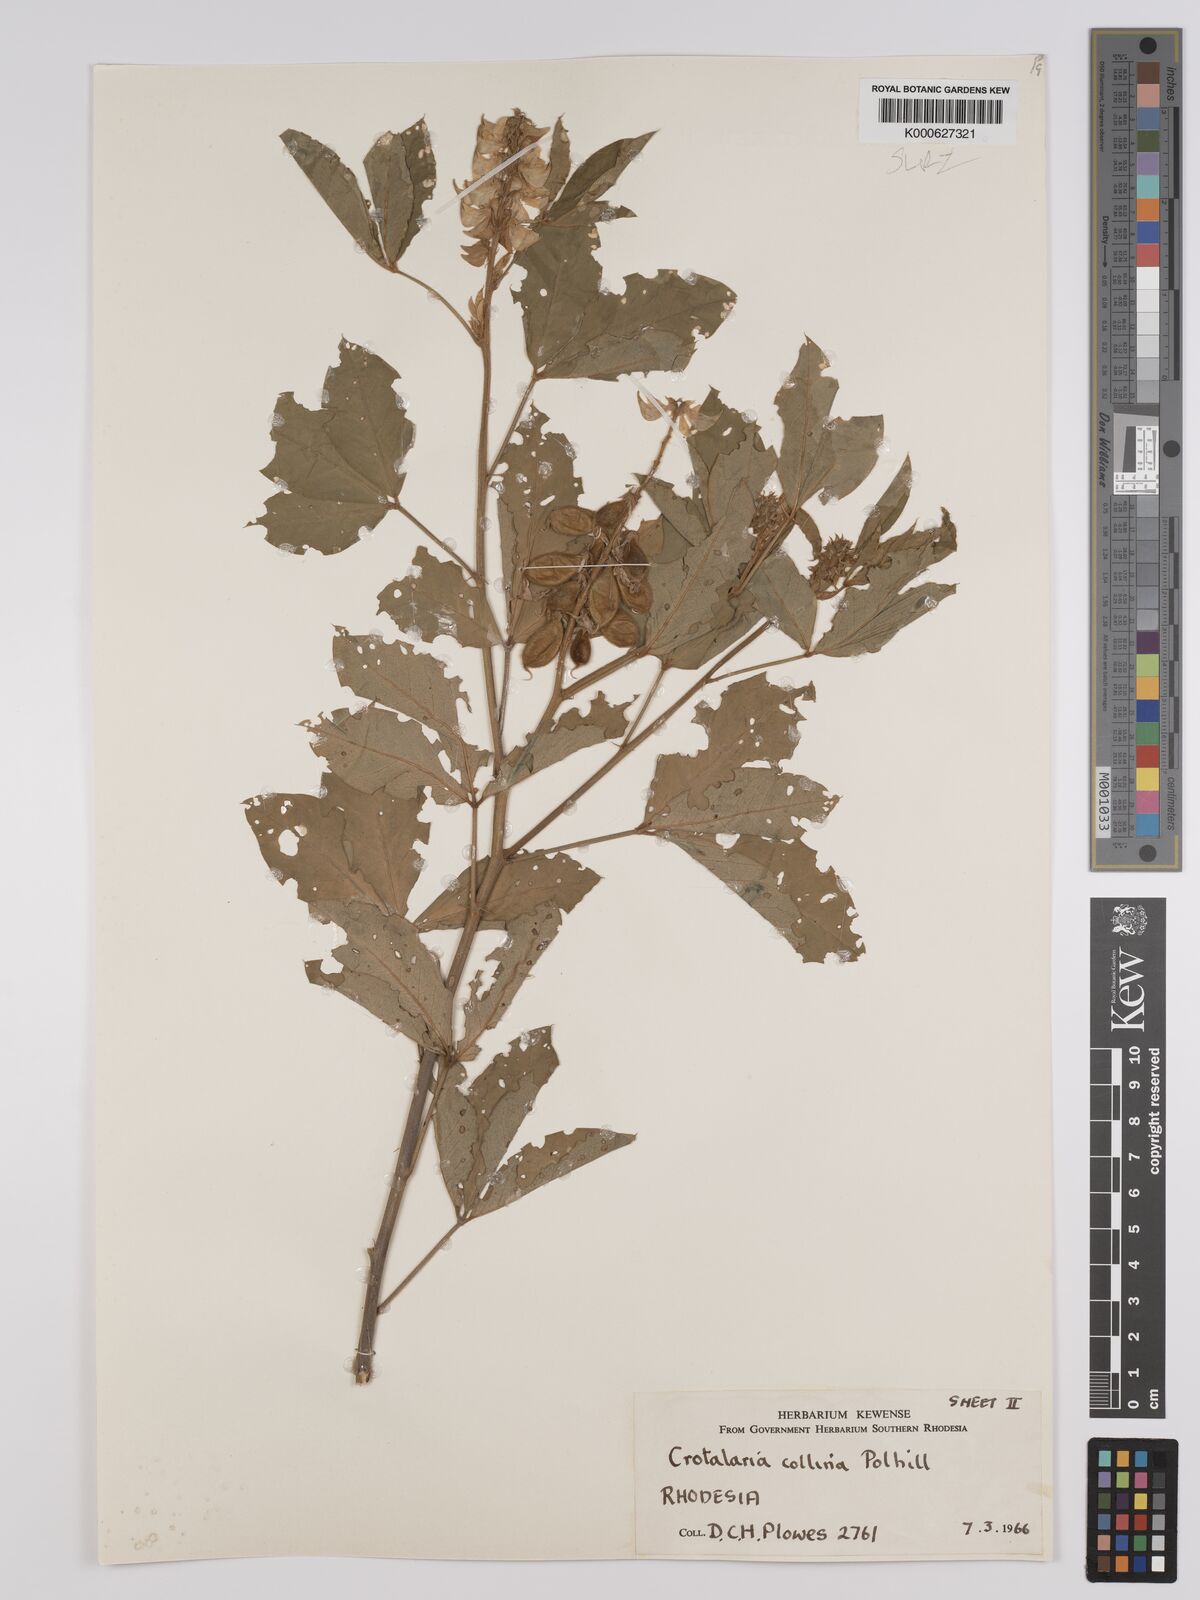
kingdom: Plantae
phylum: Tracheophyta
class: Magnoliopsida
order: Fabales
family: Fabaceae
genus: Crotalaria
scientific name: Crotalaria collina
